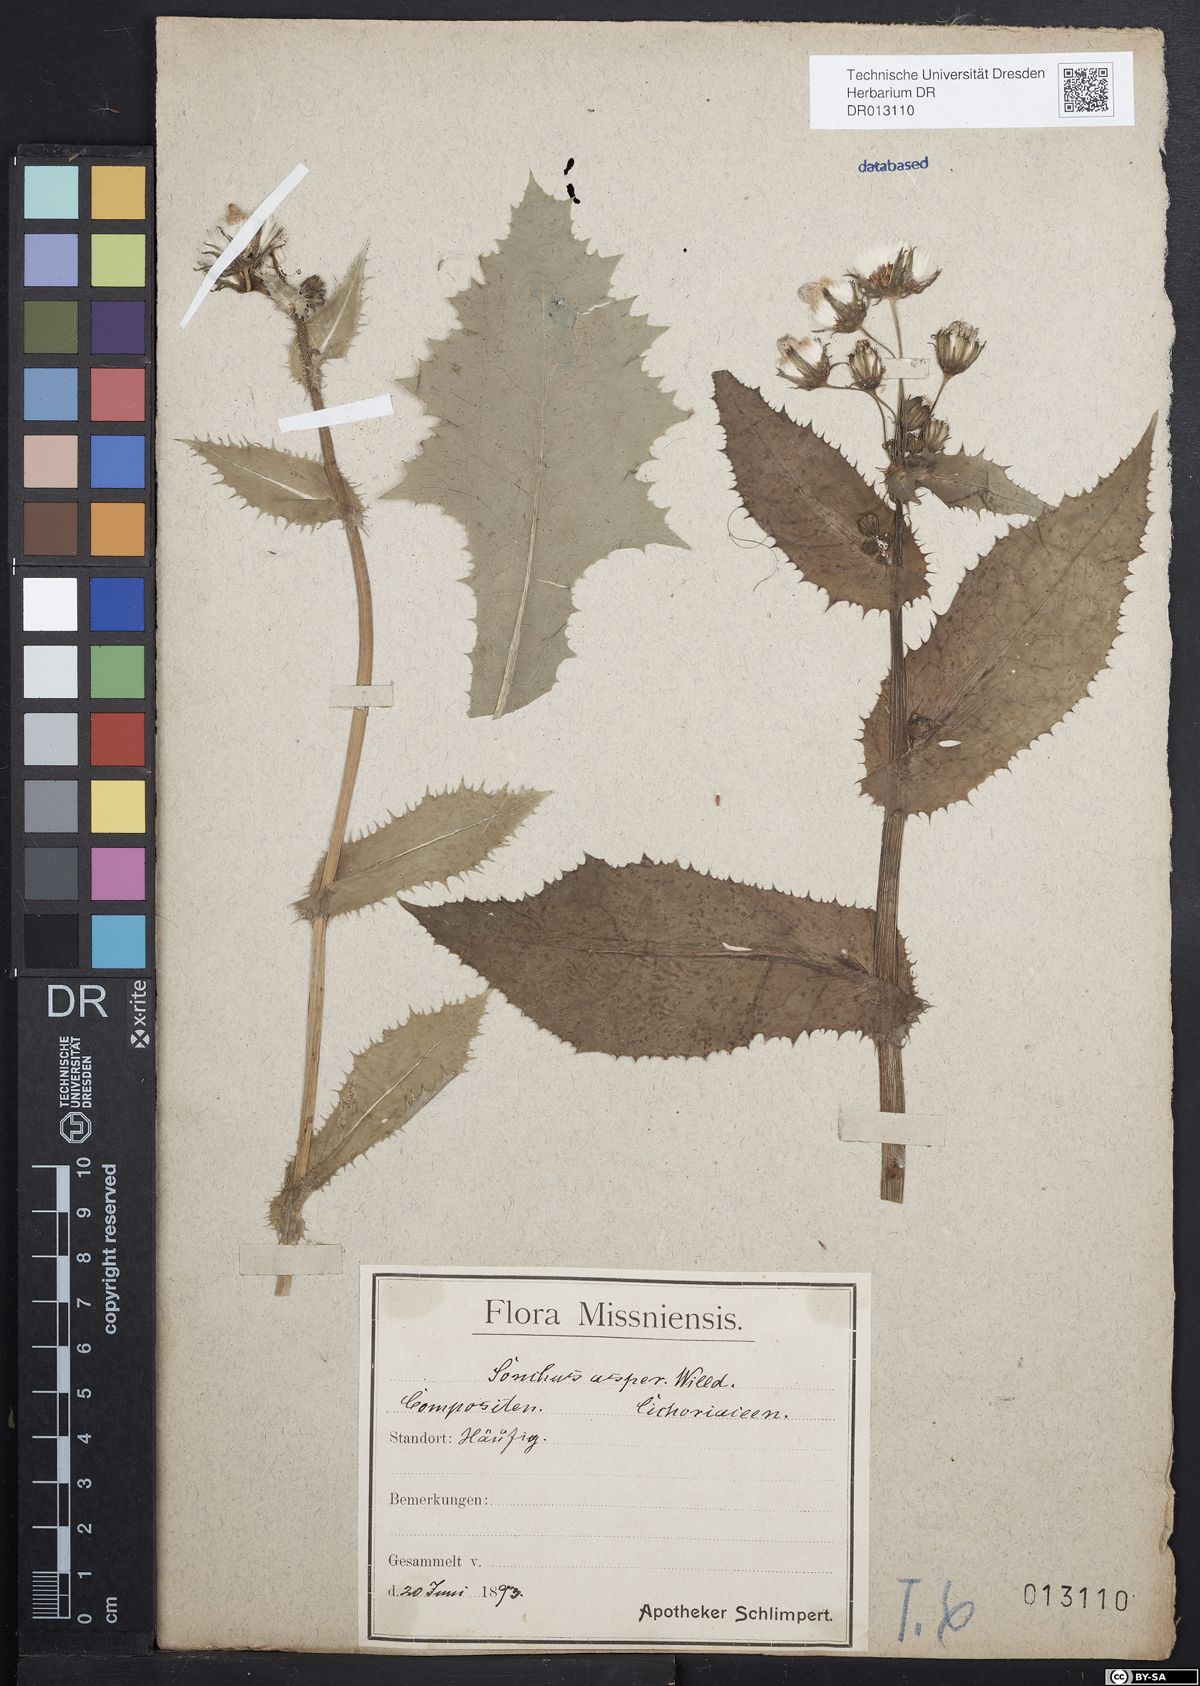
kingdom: Plantae
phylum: Tracheophyta
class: Magnoliopsida
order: Asterales
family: Asteraceae
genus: Sonchus
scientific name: Sonchus asper
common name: Prickly sow-thistle
